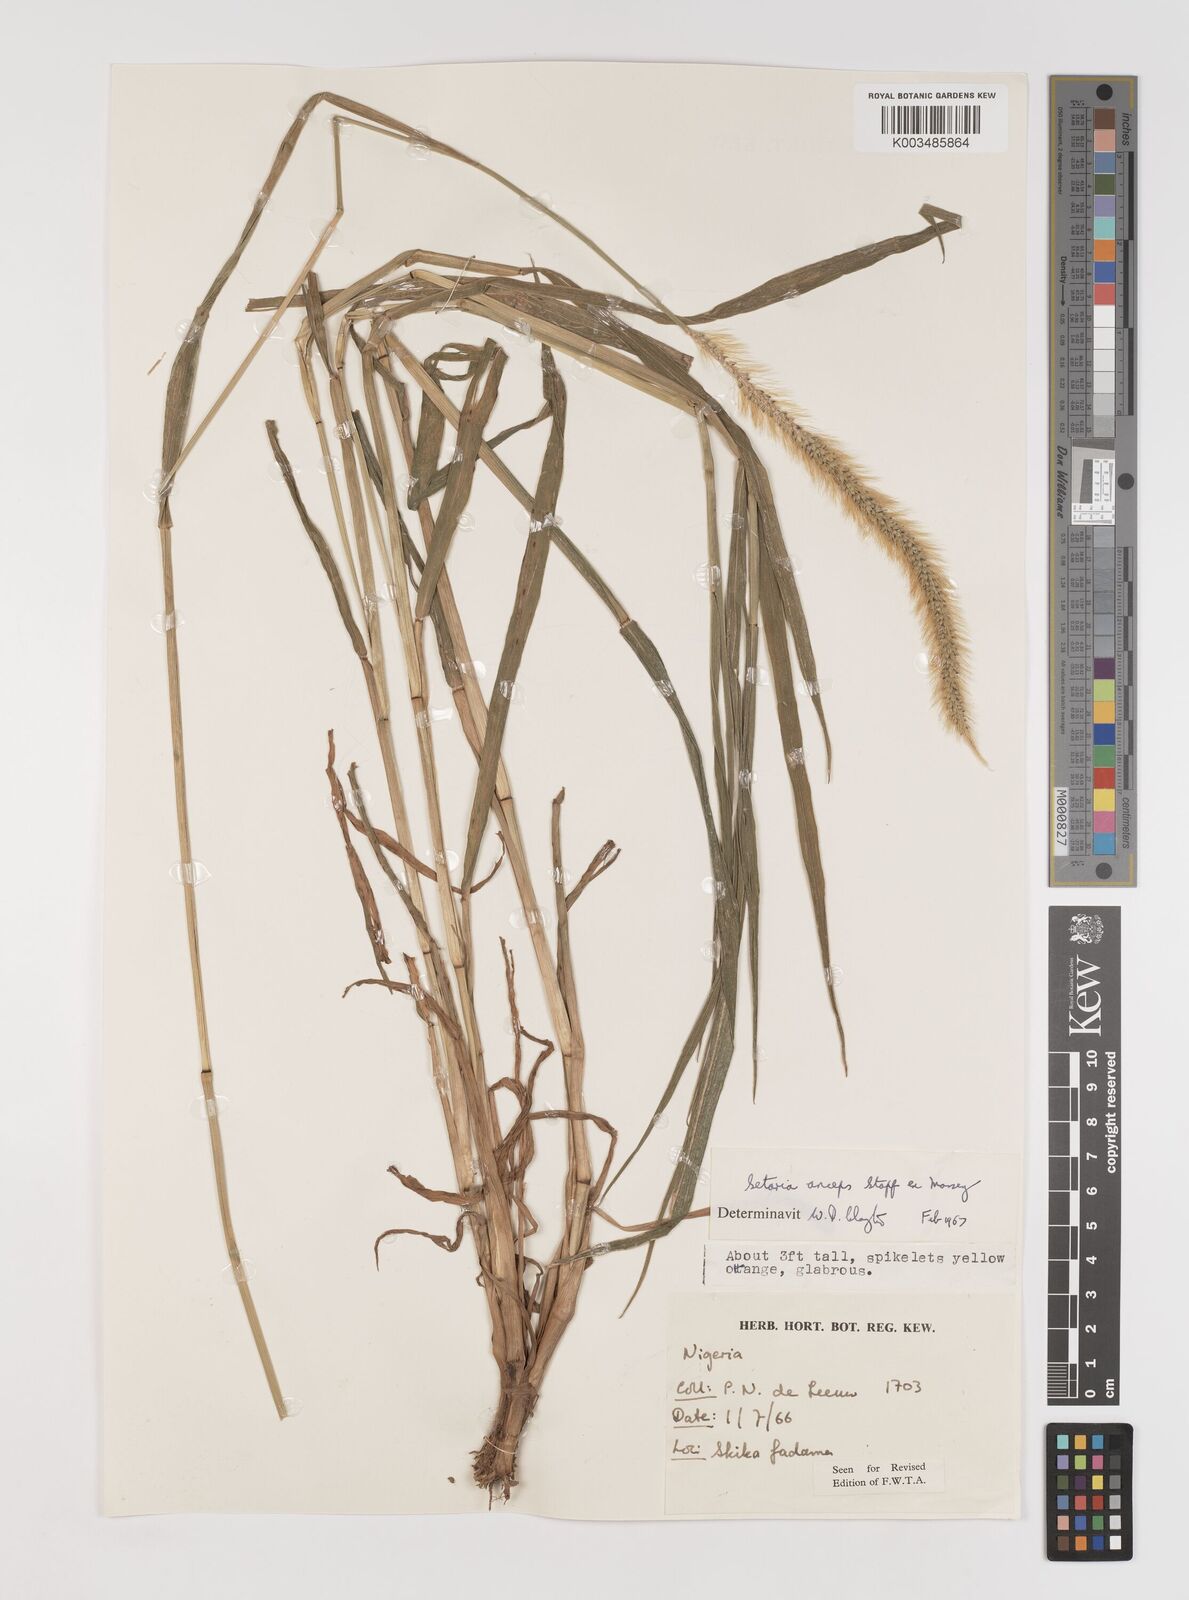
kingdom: Plantae
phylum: Tracheophyta
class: Liliopsida
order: Poales
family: Poaceae
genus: Setaria
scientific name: Setaria sphacelata
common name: African bristlegrass
